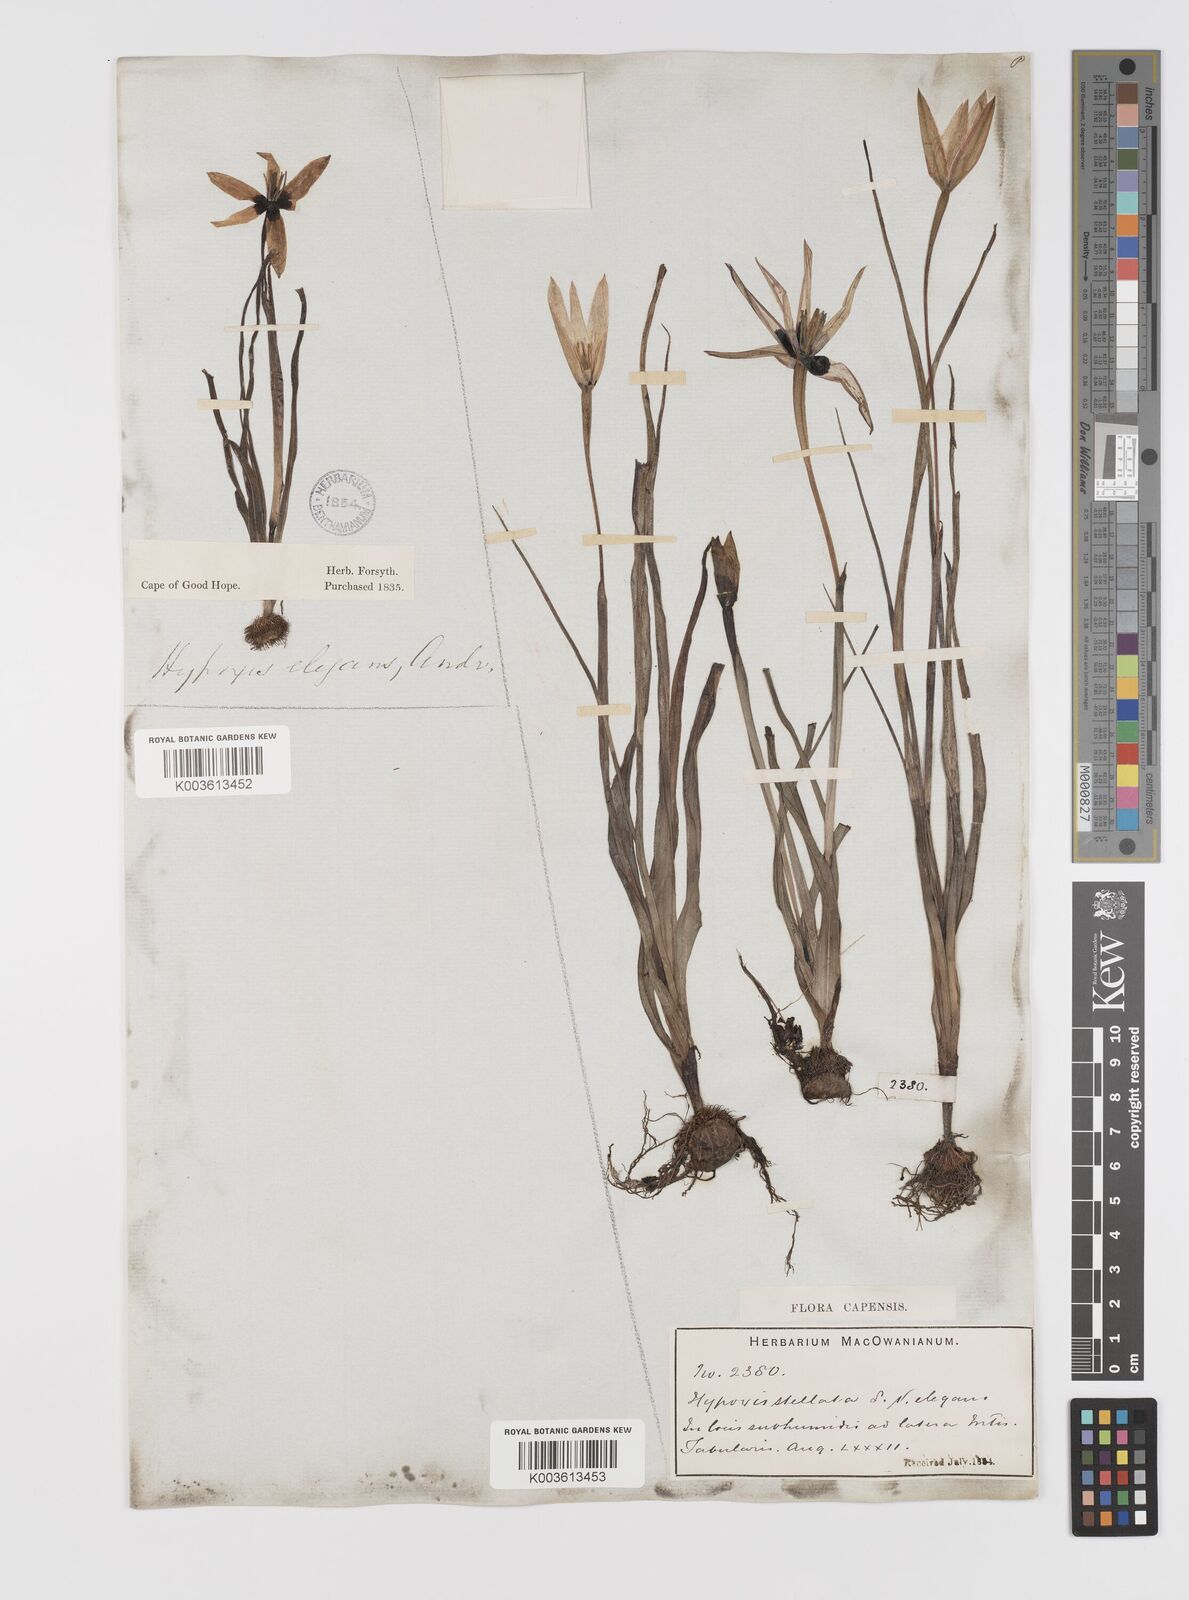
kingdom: Plantae
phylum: Tracheophyta
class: Liliopsida
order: Asparagales
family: Hypoxidaceae
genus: Pauridia
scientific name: Pauridia capensis
